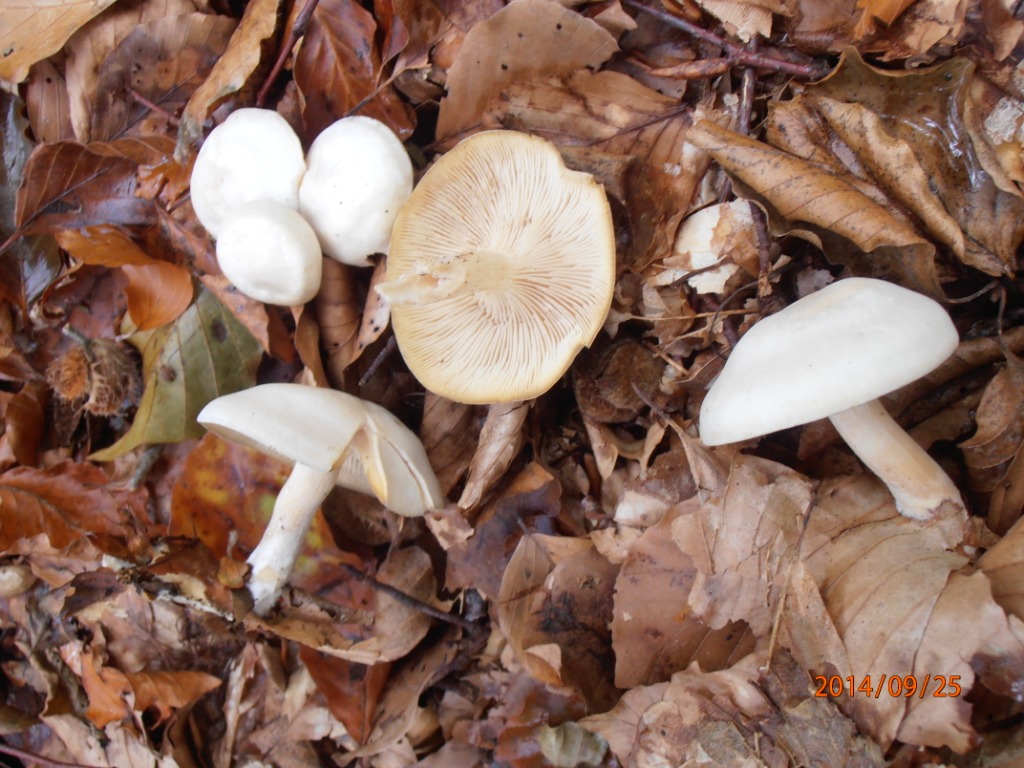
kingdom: Fungi
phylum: Basidiomycota
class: Agaricomycetes
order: Agaricales
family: Tricholomataceae
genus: Tricholoma
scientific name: Tricholoma lascivum
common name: stinkende ridderhat
